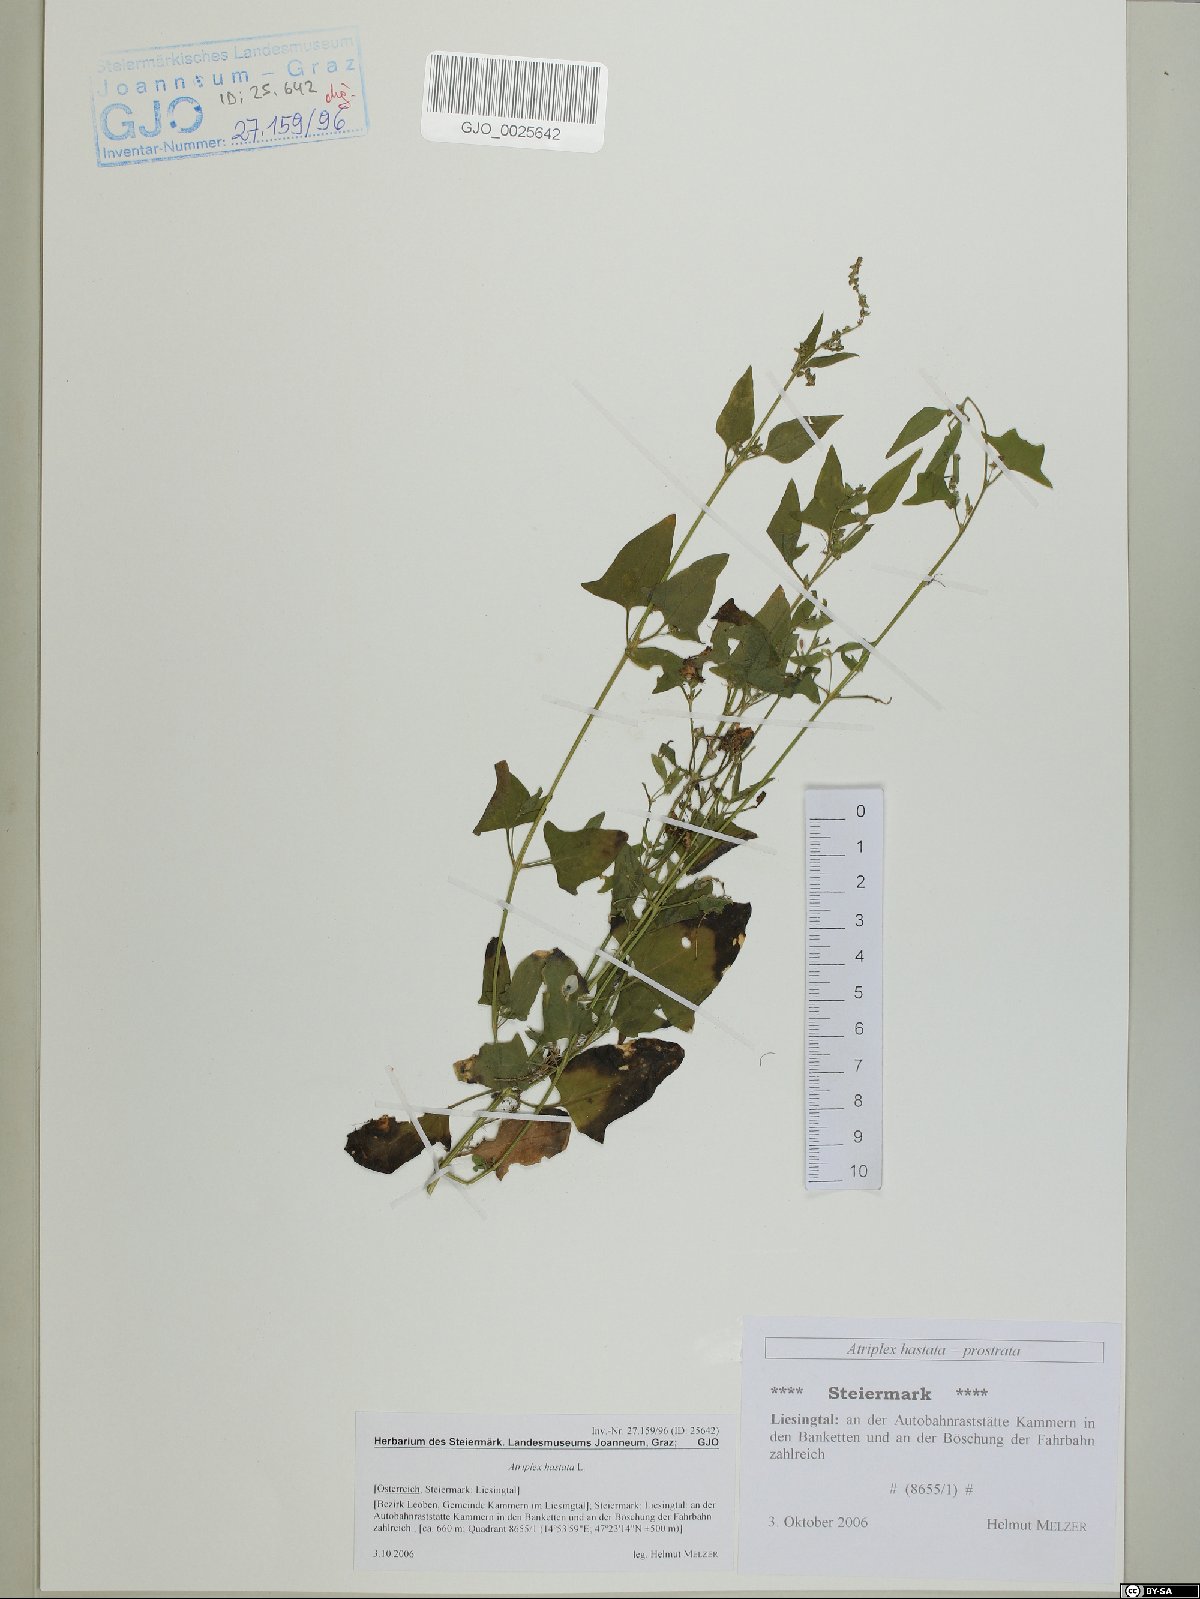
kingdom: Plantae
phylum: Tracheophyta
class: Magnoliopsida
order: Caryophyllales
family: Amaranthaceae
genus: Atriplex
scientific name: Atriplex calotheca
